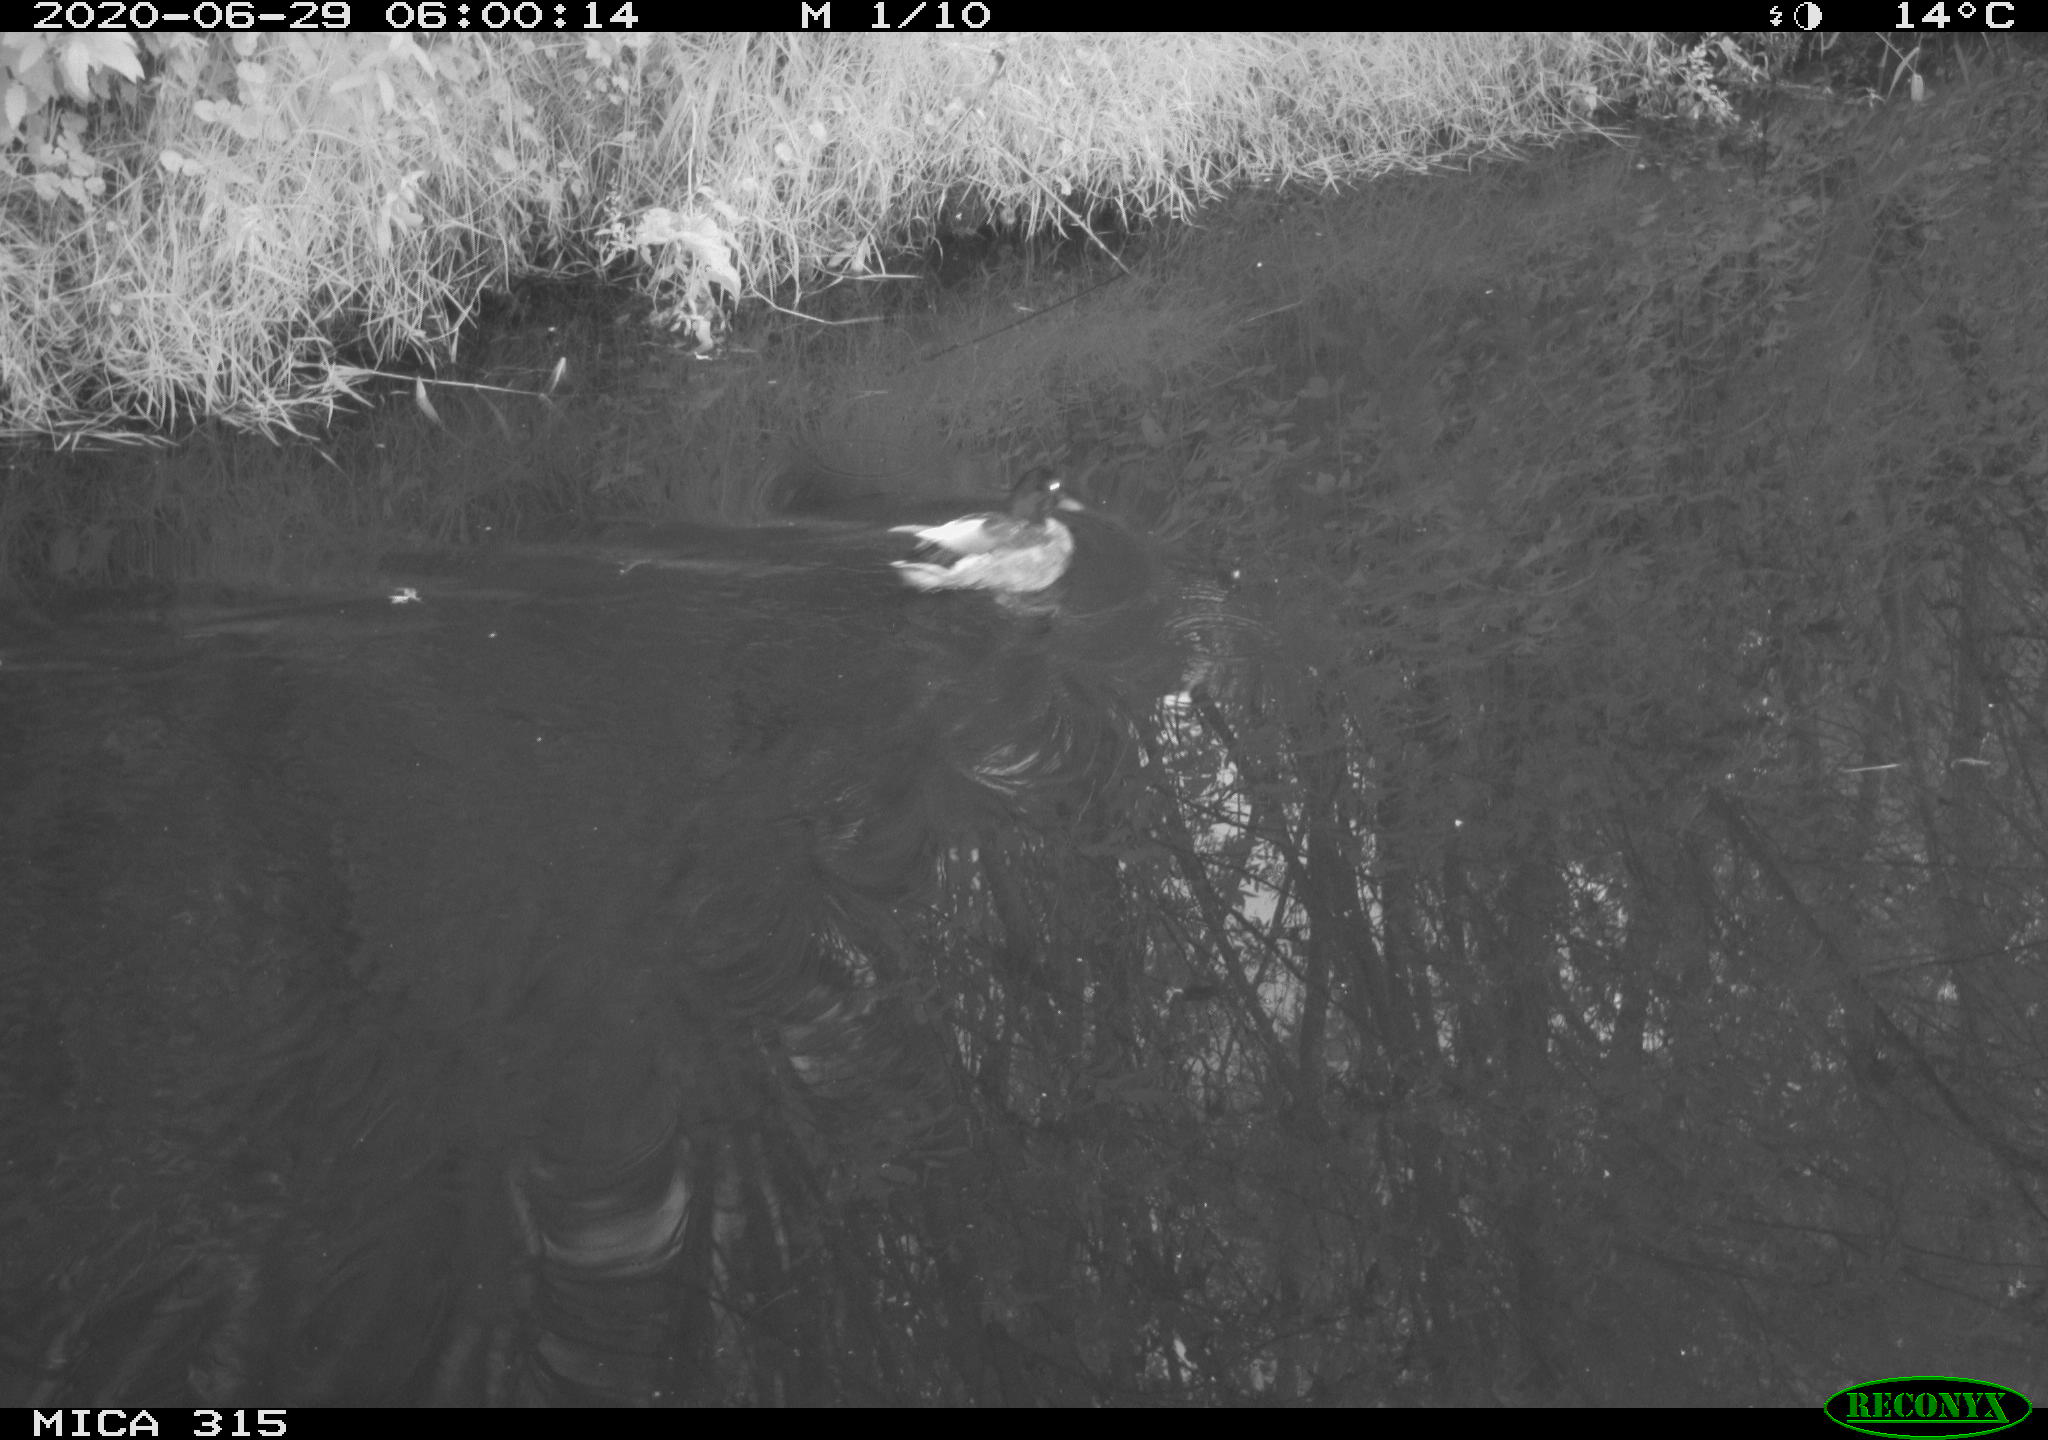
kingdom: Animalia
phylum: Chordata
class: Aves
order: Anseriformes
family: Anatidae
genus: Anas
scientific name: Anas platyrhynchos
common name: Mallard
